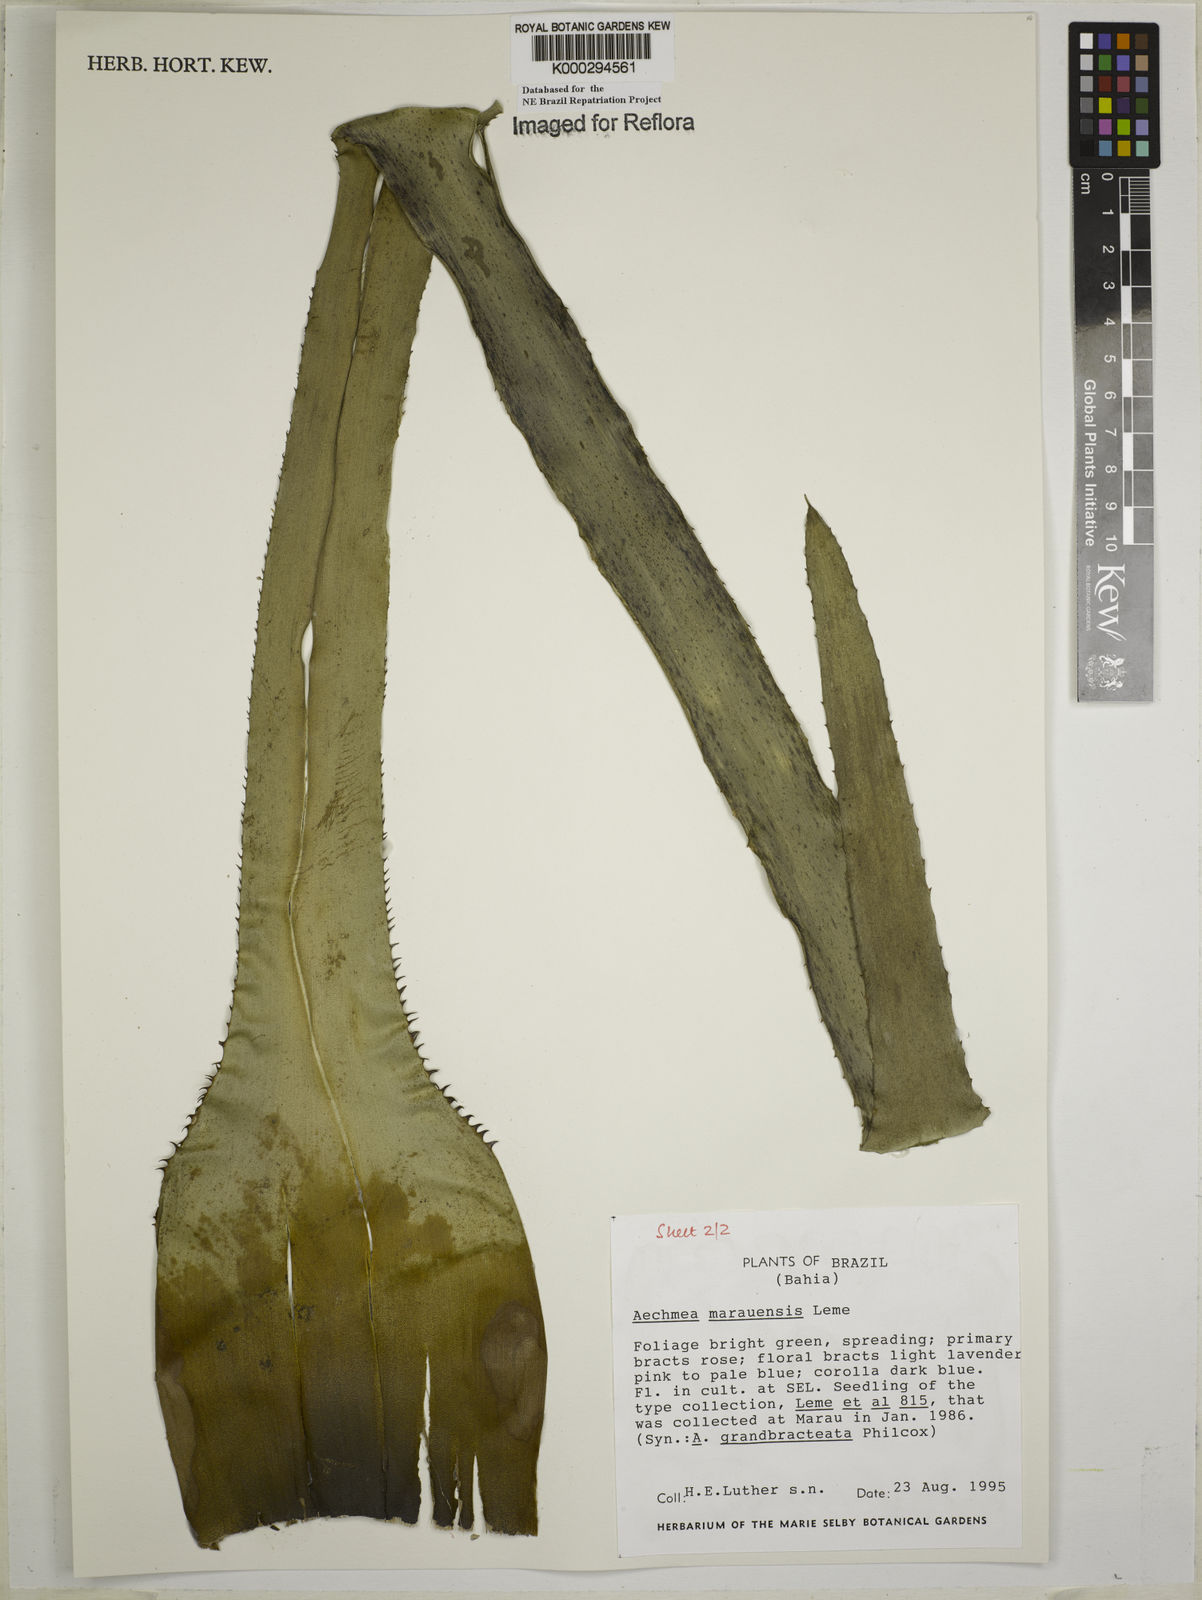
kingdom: Plantae
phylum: Tracheophyta
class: Liliopsida
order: Poales
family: Bromeliaceae
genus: Aechmea
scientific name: Aechmea marauensis
